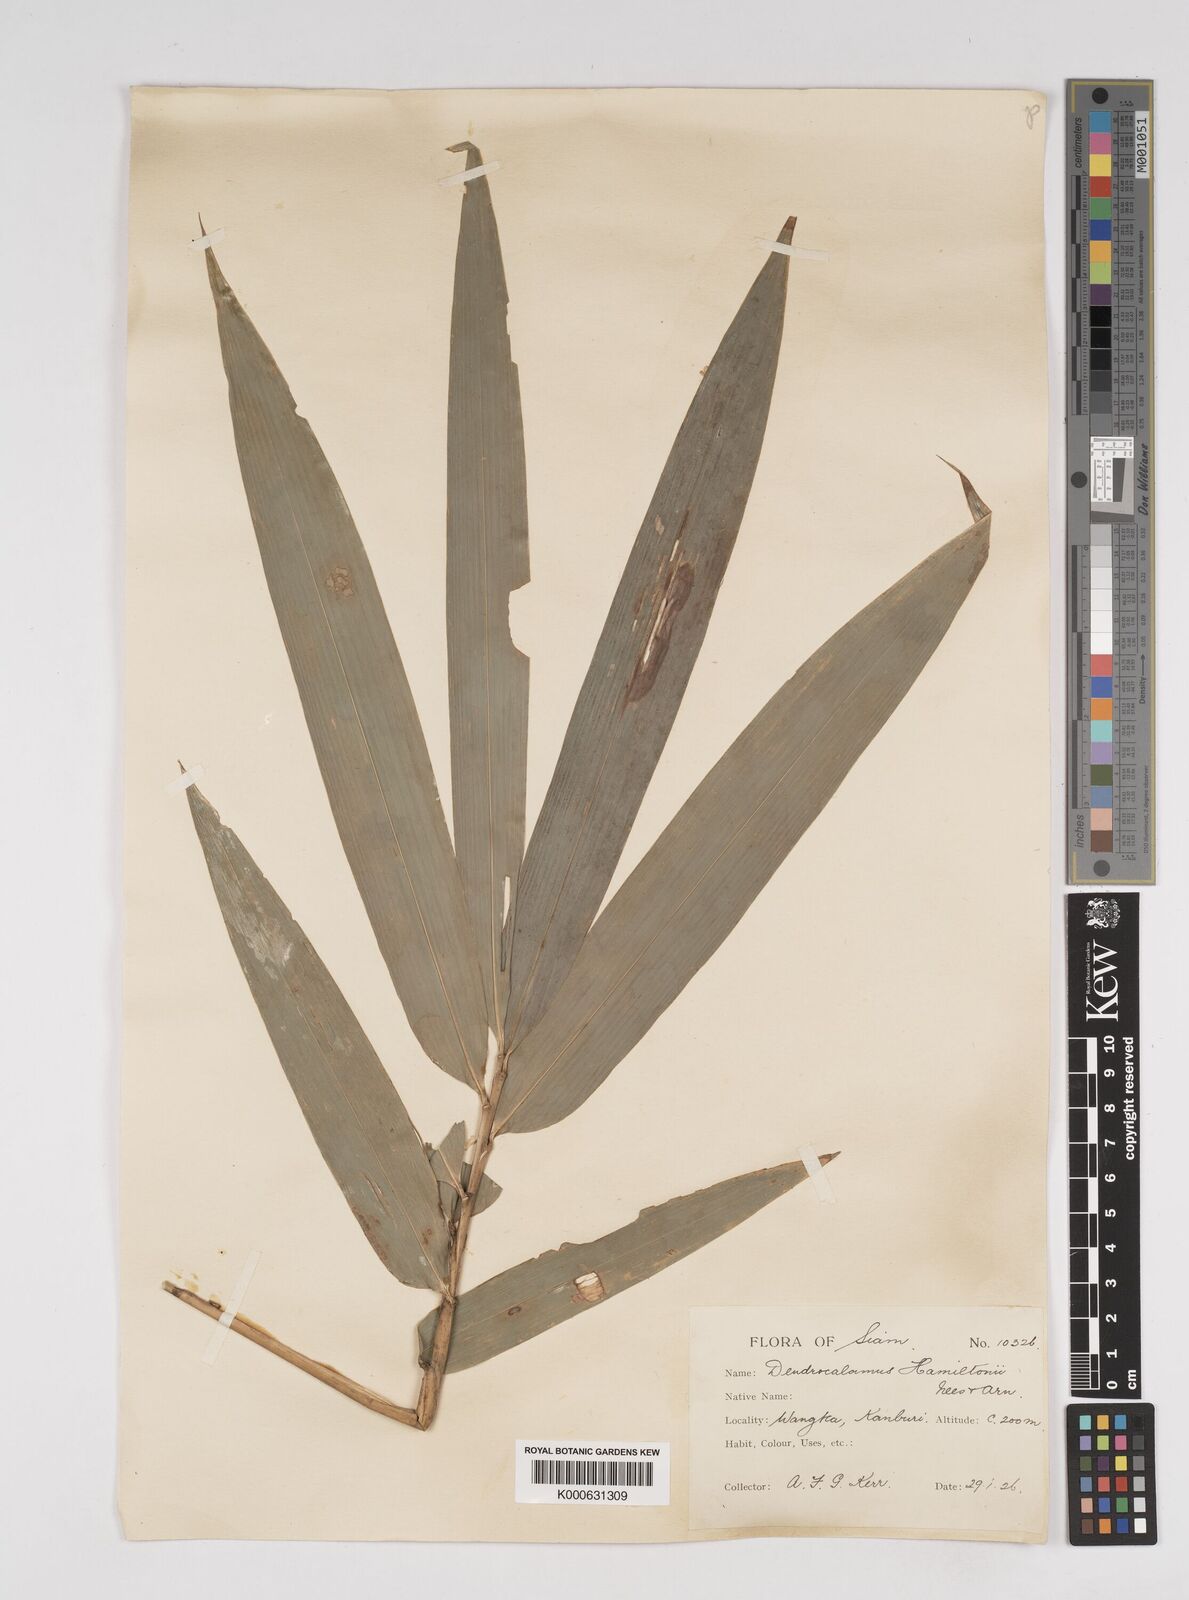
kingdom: Plantae
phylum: Tracheophyta
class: Liliopsida
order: Poales
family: Poaceae
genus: Dendrocalamus
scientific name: Dendrocalamus brandisii
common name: Velvetleaf bamboo
